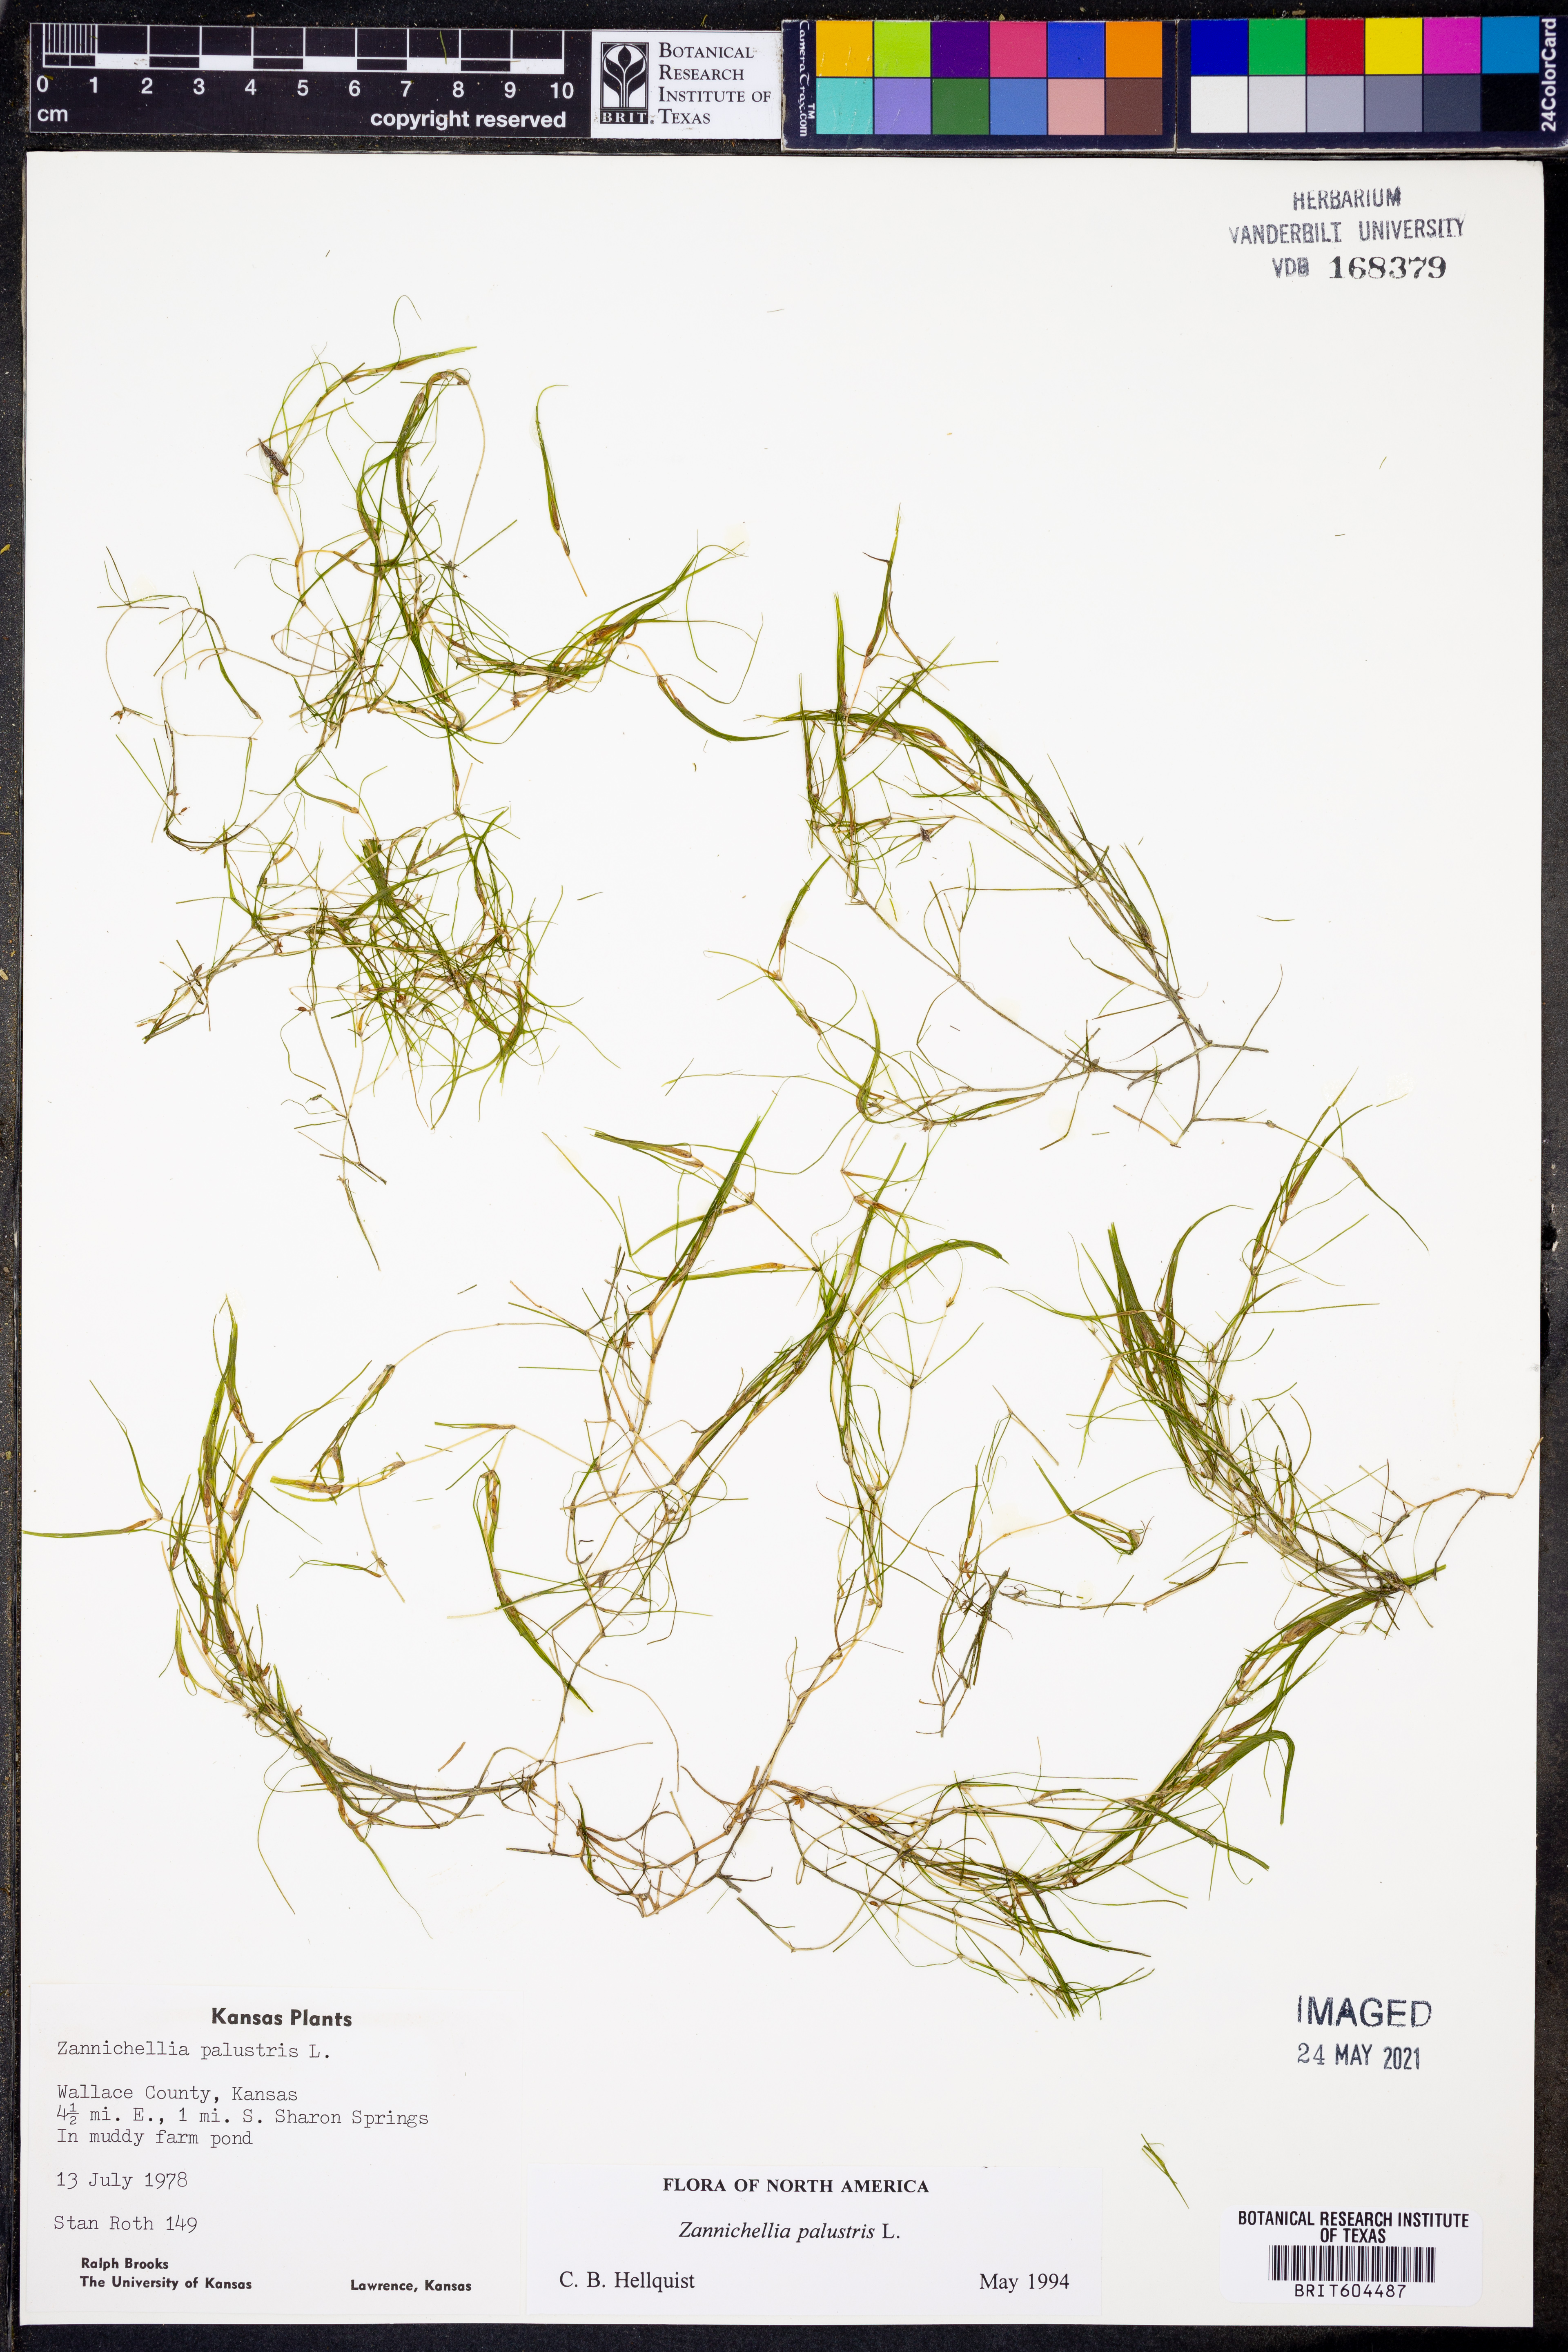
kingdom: Plantae
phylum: Tracheophyta
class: Liliopsida
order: Alismatales
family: Potamogetonaceae
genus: Zannichellia
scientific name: Zannichellia palustris
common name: Horned pondweed
